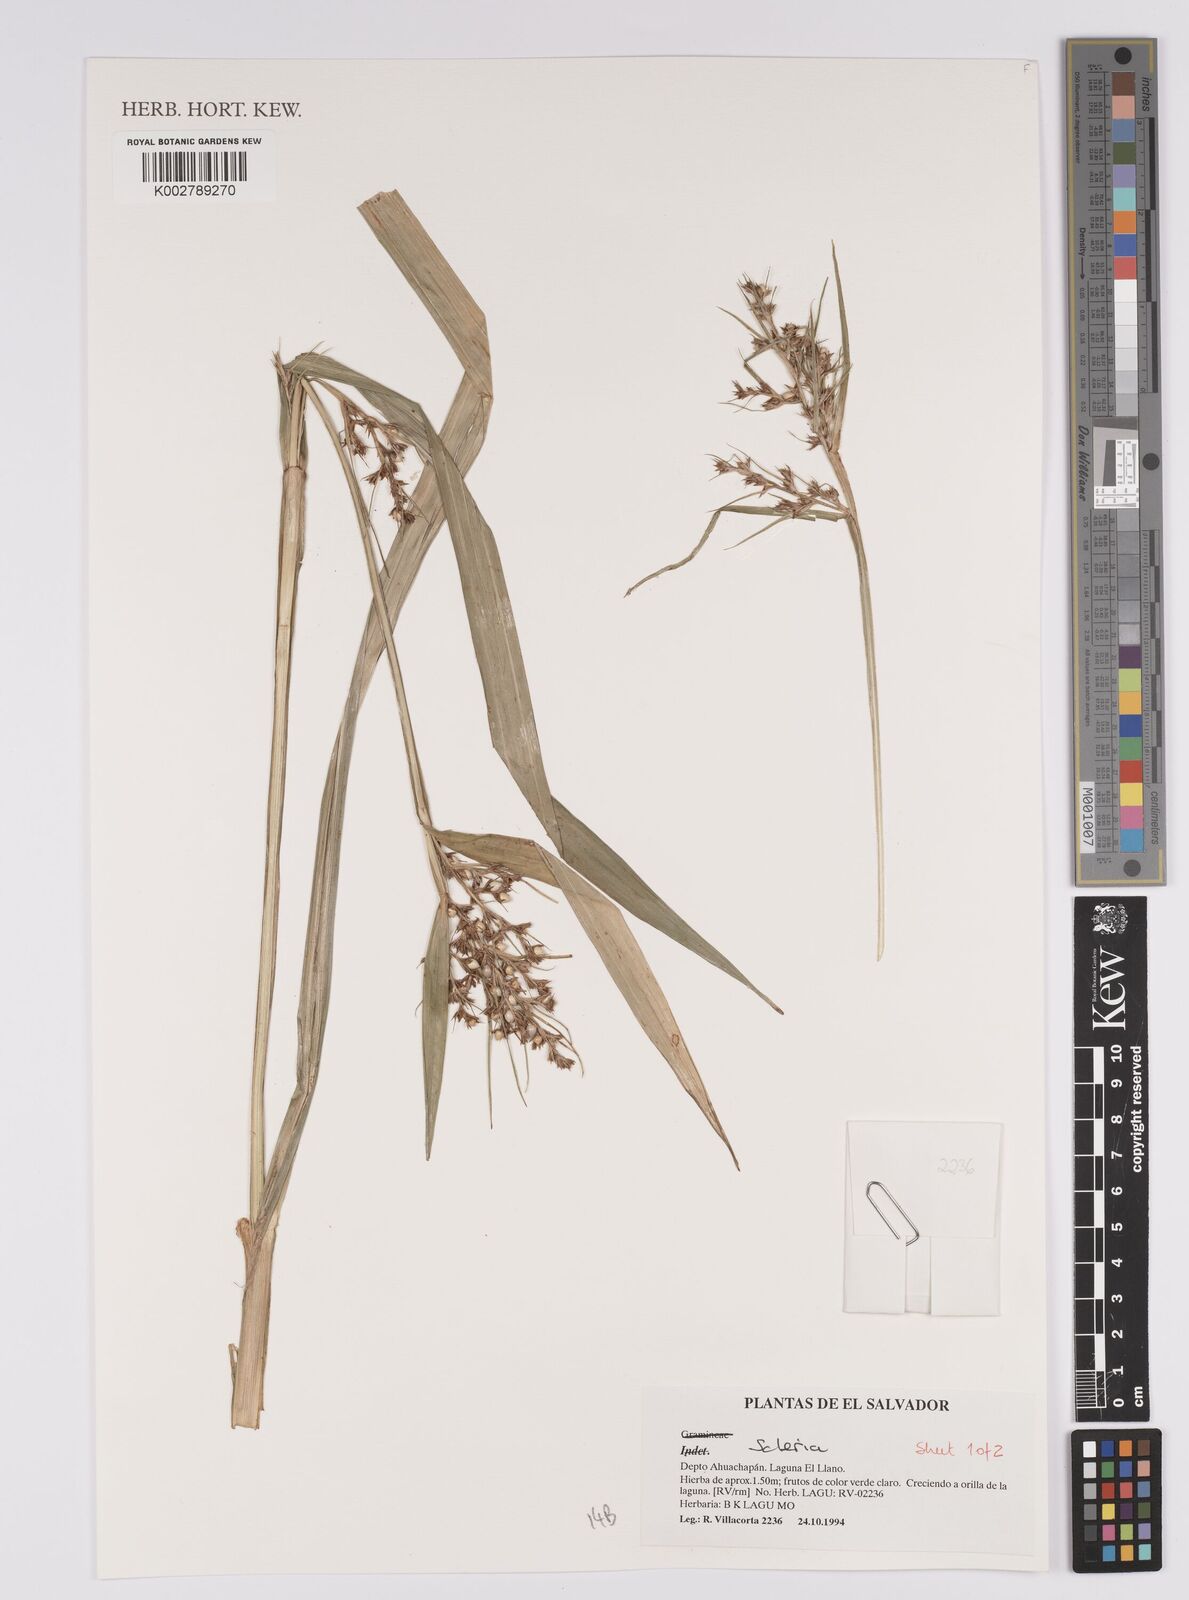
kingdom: Plantae
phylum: Tracheophyta
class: Liliopsida
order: Poales
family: Cyperaceae
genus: Scleria
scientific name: Scleria
